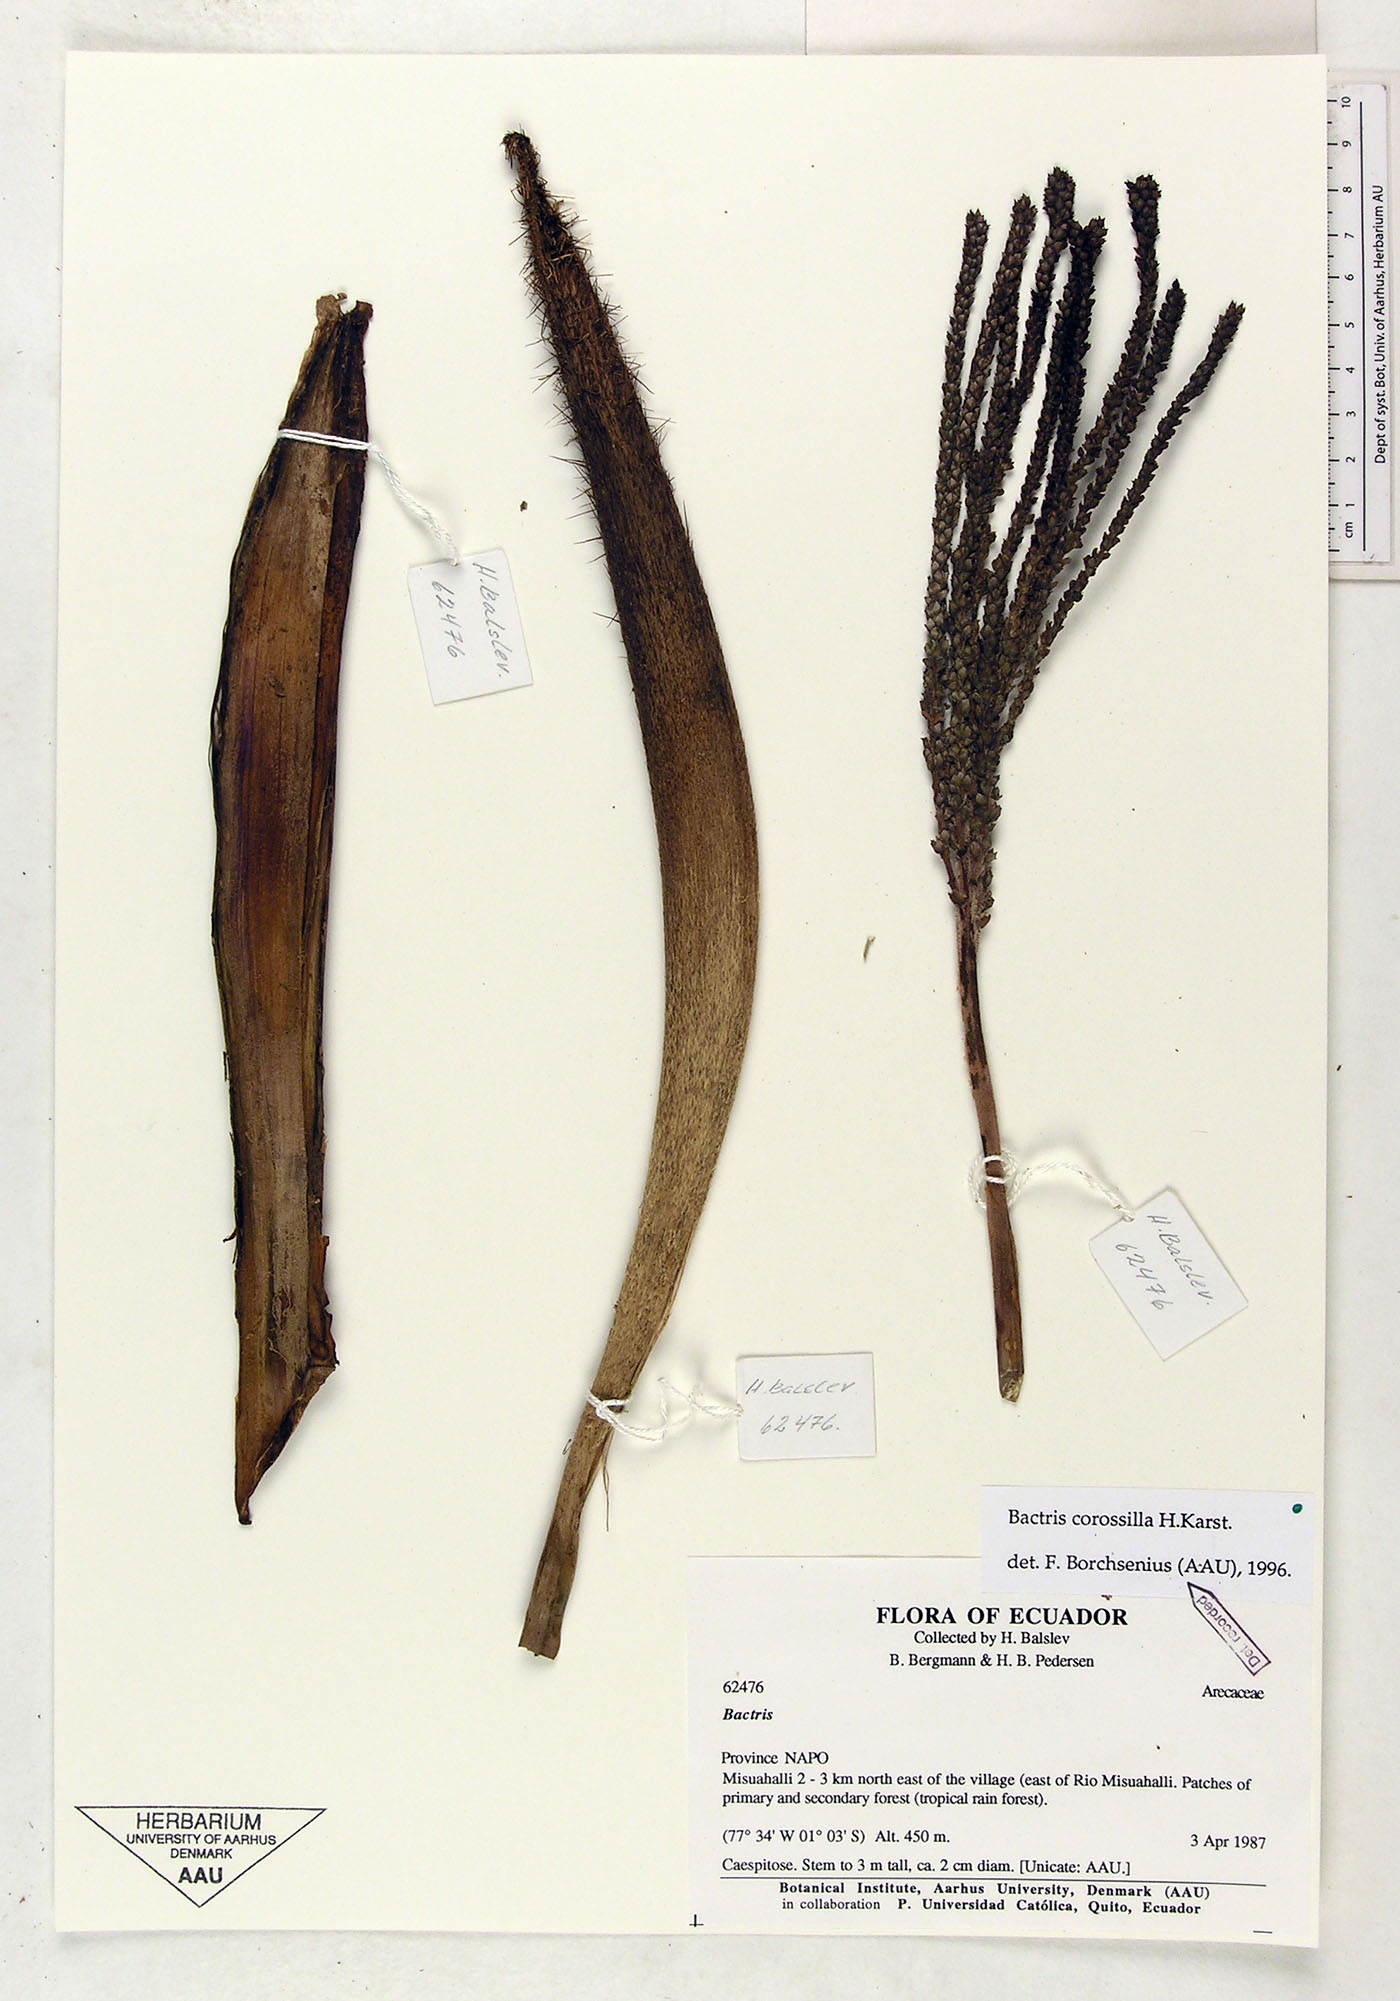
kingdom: Plantae
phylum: Tracheophyta
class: Liliopsida
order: Arecales
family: Arecaceae
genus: Bactris
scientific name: Bactris corossilla
